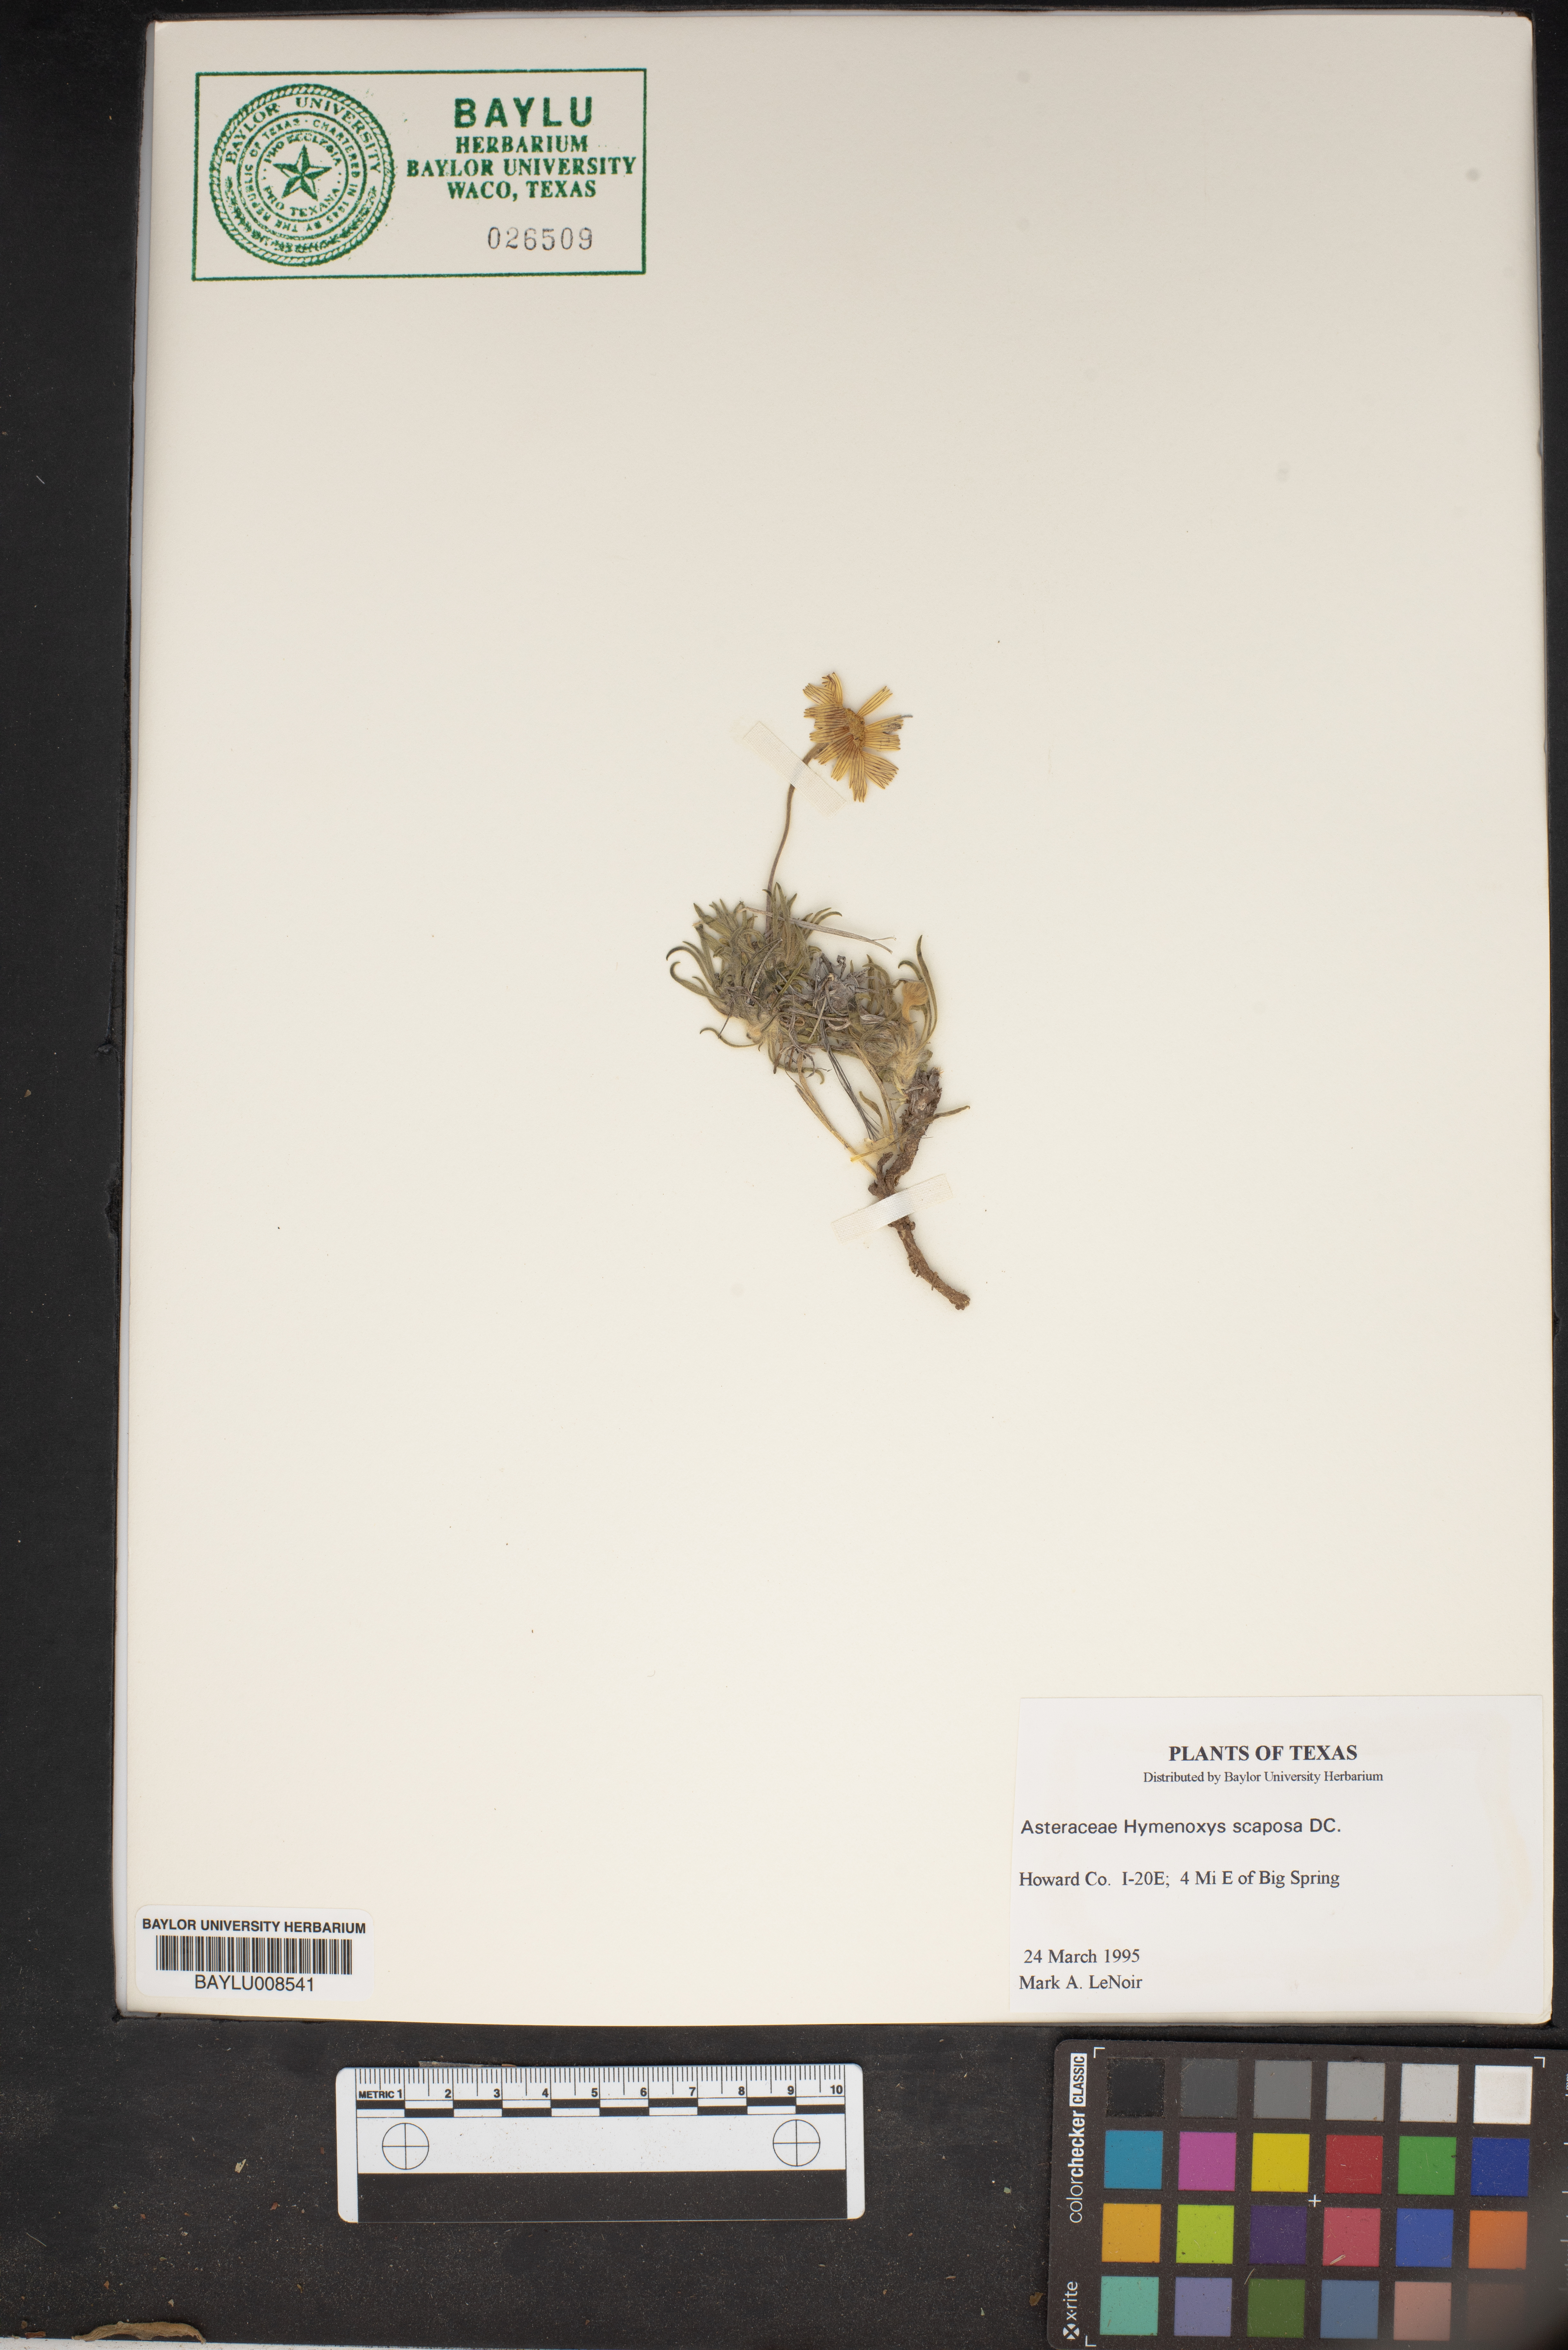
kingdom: Plantae
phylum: Tracheophyta
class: Magnoliopsida
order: Asterales
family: Asteraceae
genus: Tetraneuris
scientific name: Tetraneuris scaposa
